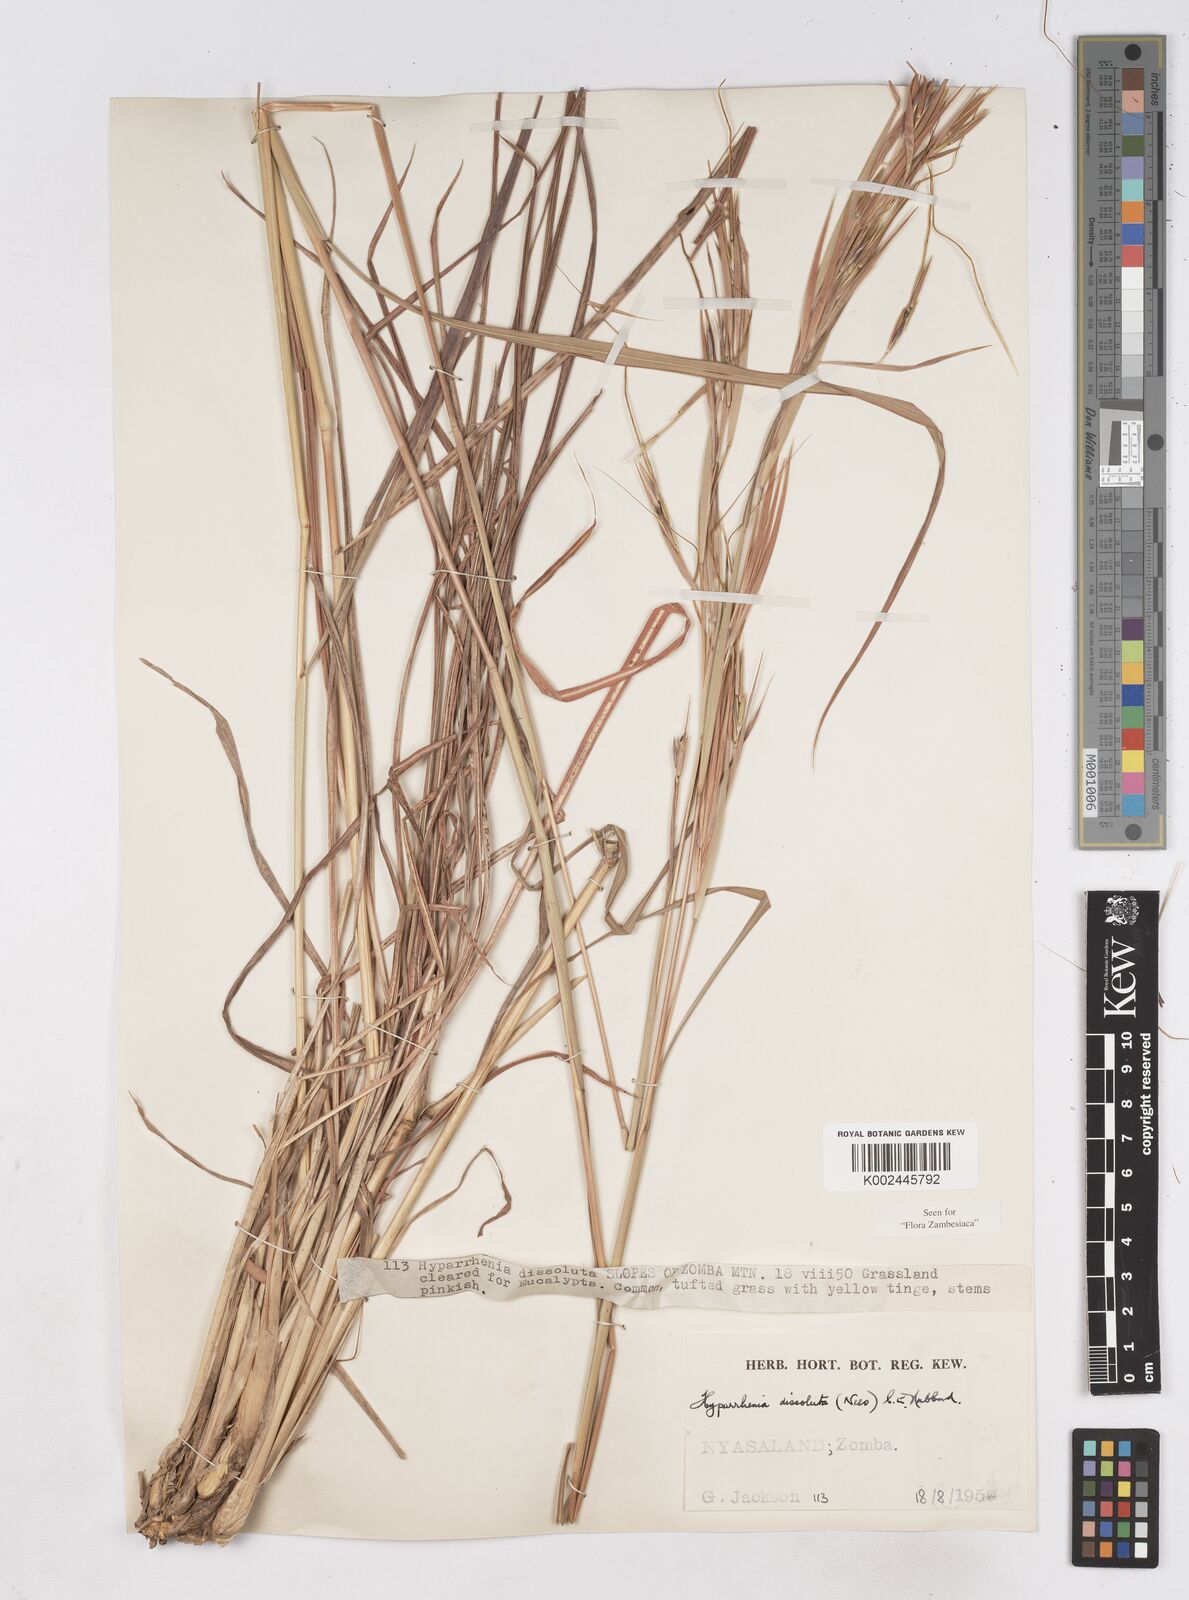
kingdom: Plantae
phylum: Tracheophyta
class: Liliopsida
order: Poales
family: Poaceae
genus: Hyperthelia
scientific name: Hyperthelia dissoluta
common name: Yellow thatching grass
